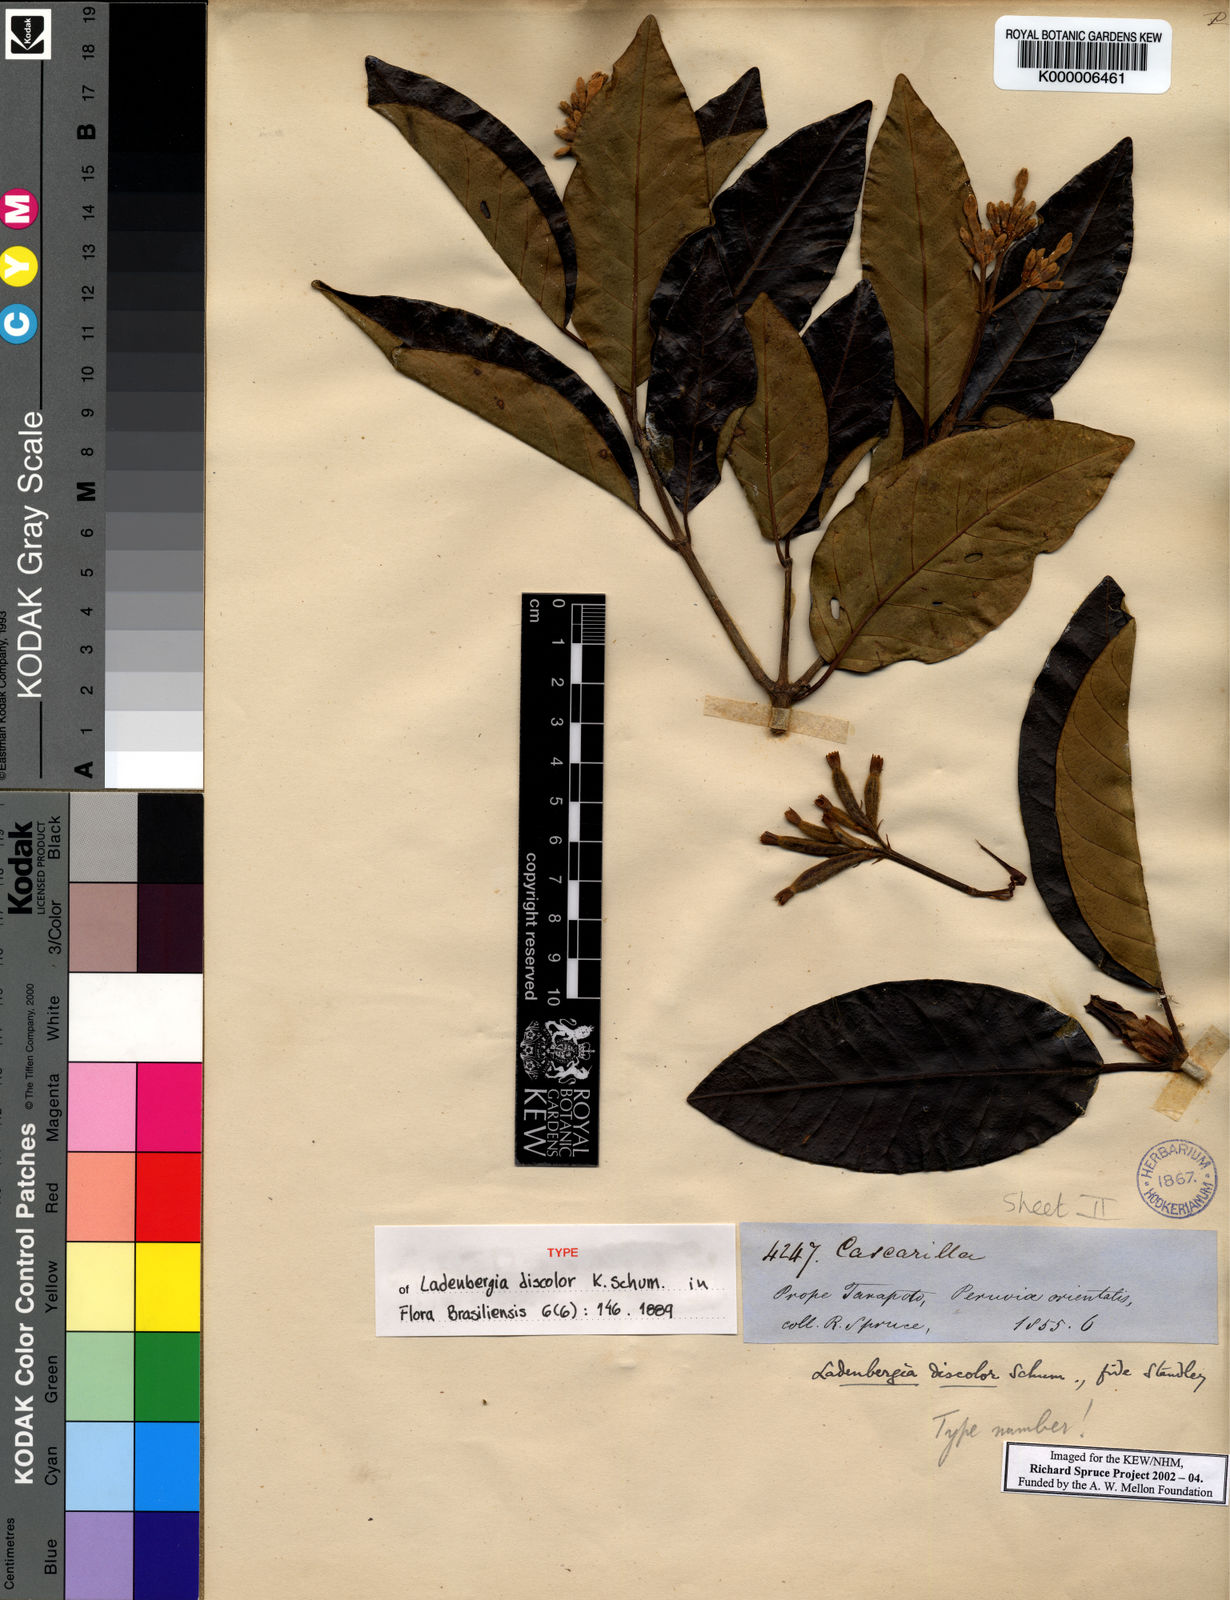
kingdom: Plantae
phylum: Tracheophyta
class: Magnoliopsida
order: Gentianales
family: Rubiaceae
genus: Ladenbergia
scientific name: Ladenbergia discolor
